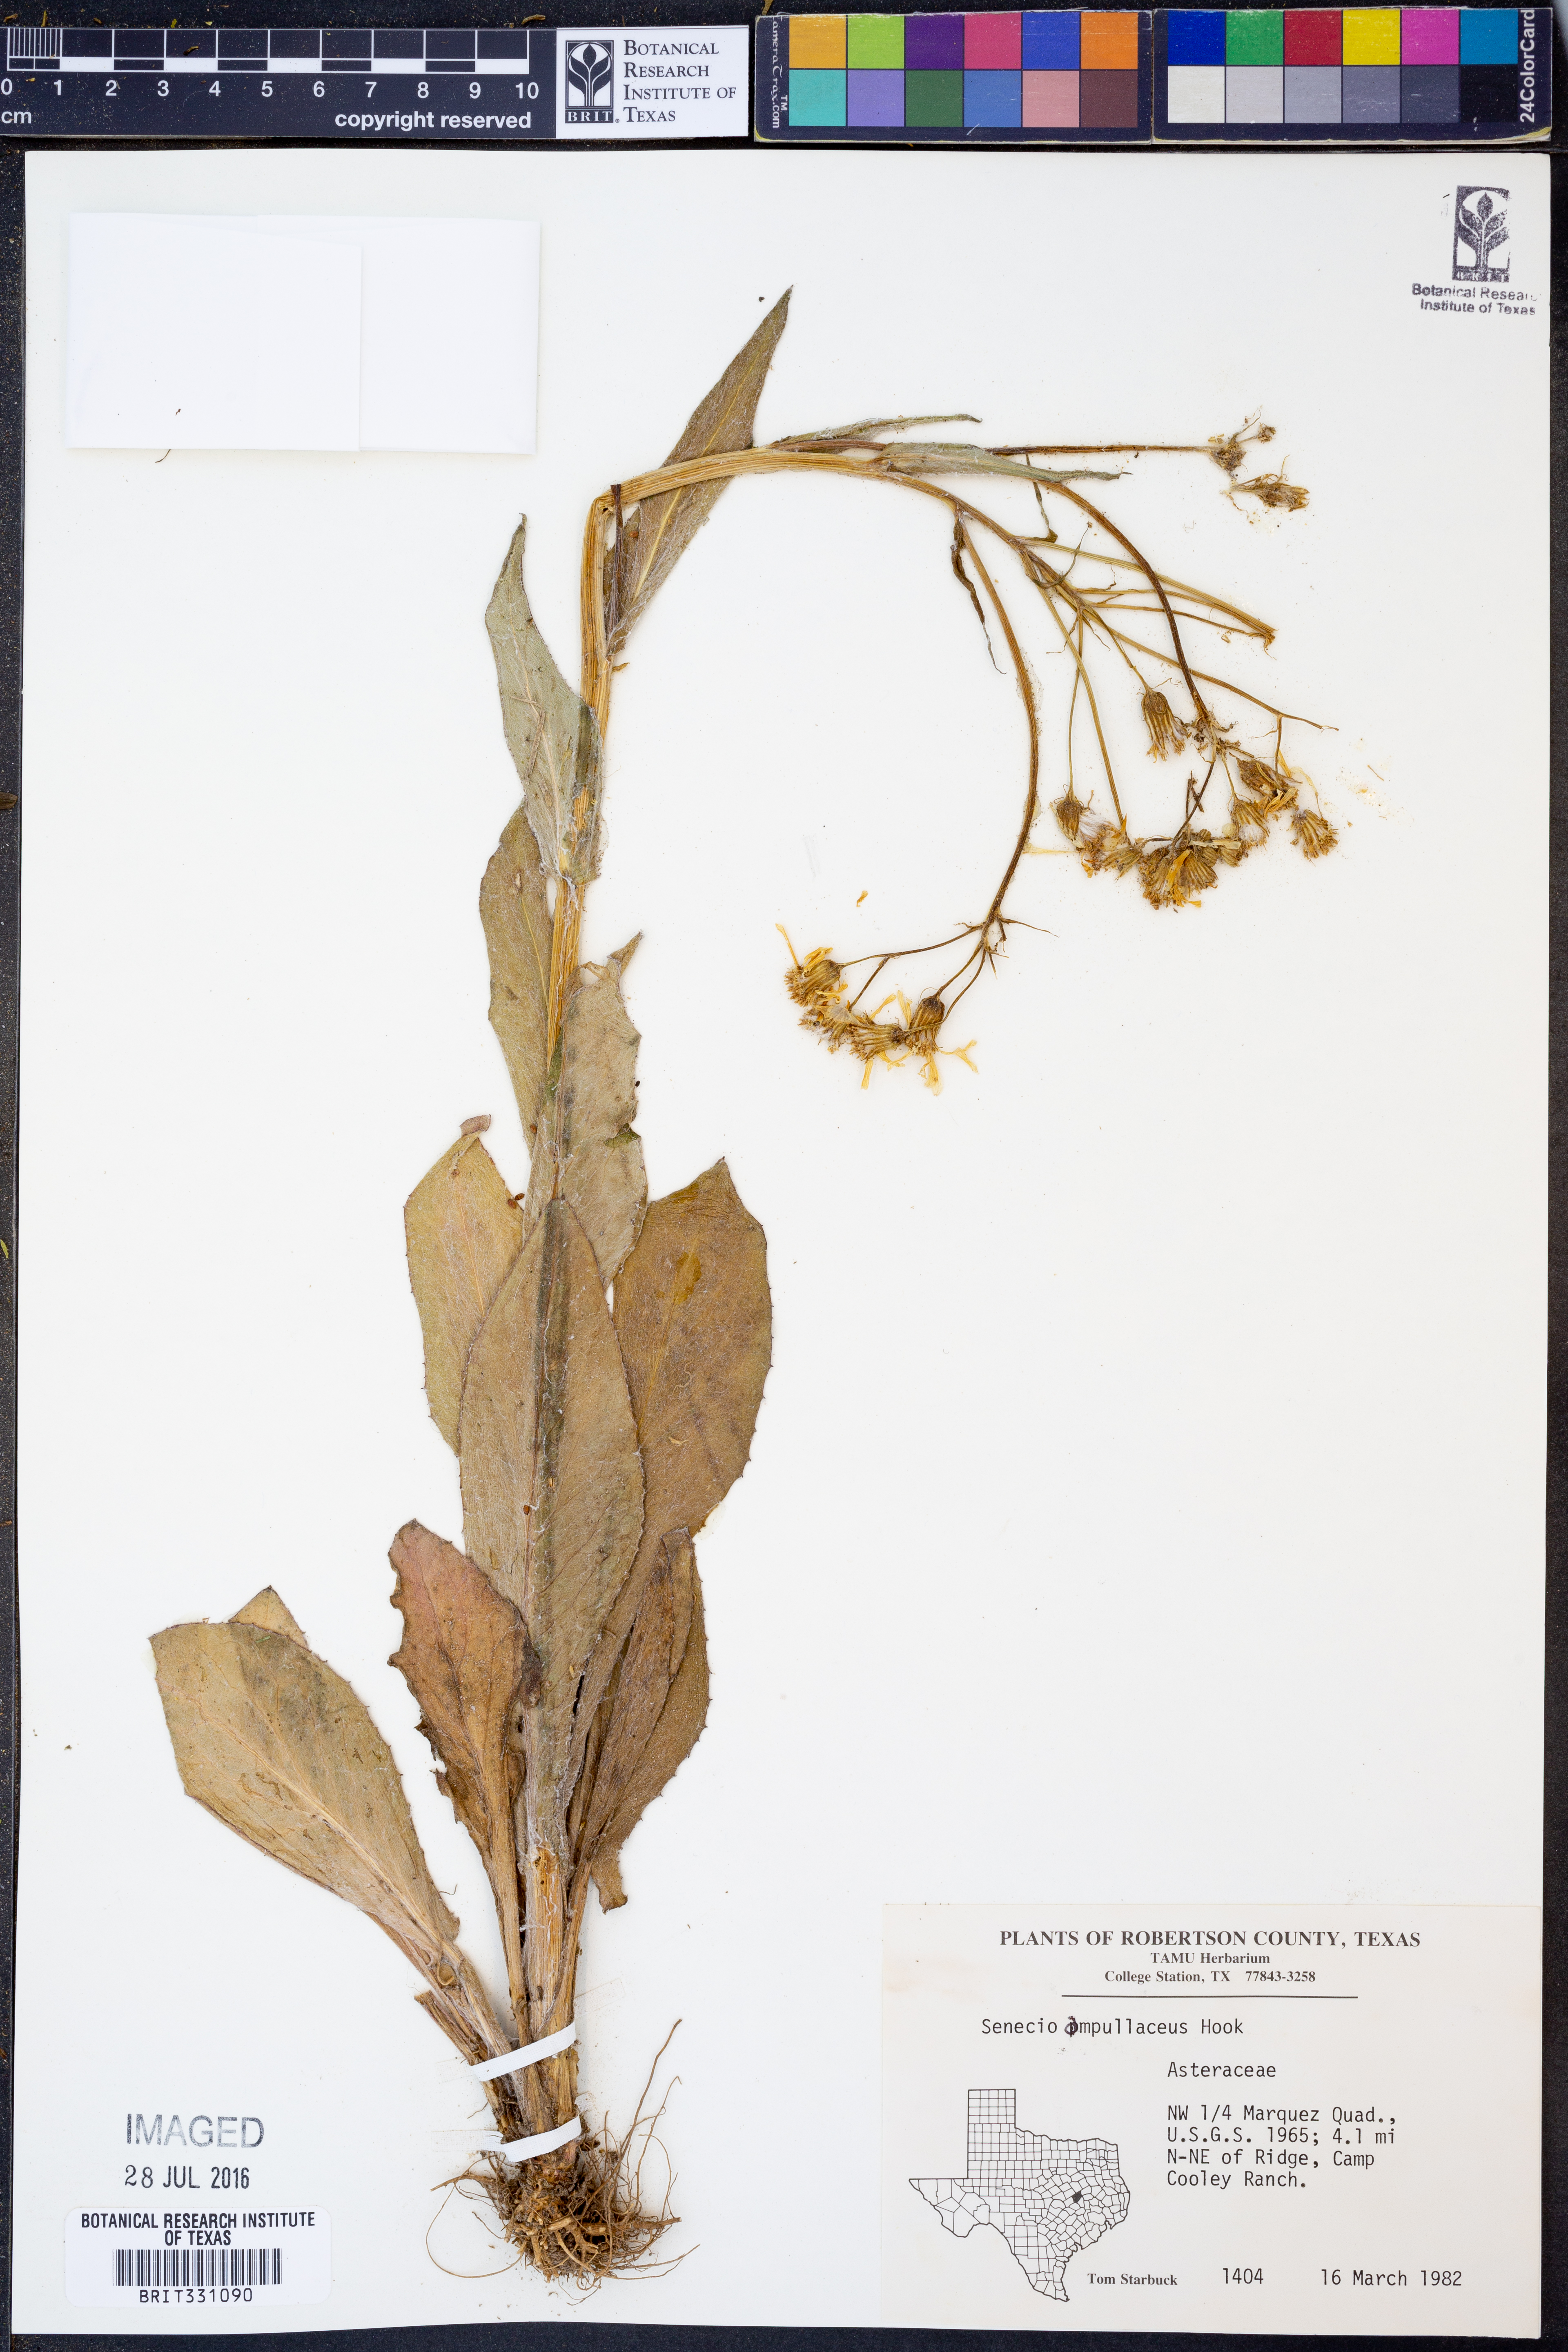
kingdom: Plantae
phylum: Tracheophyta
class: Magnoliopsida
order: Asterales
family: Asteraceae
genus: Senecio
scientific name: Senecio ampullaceus
